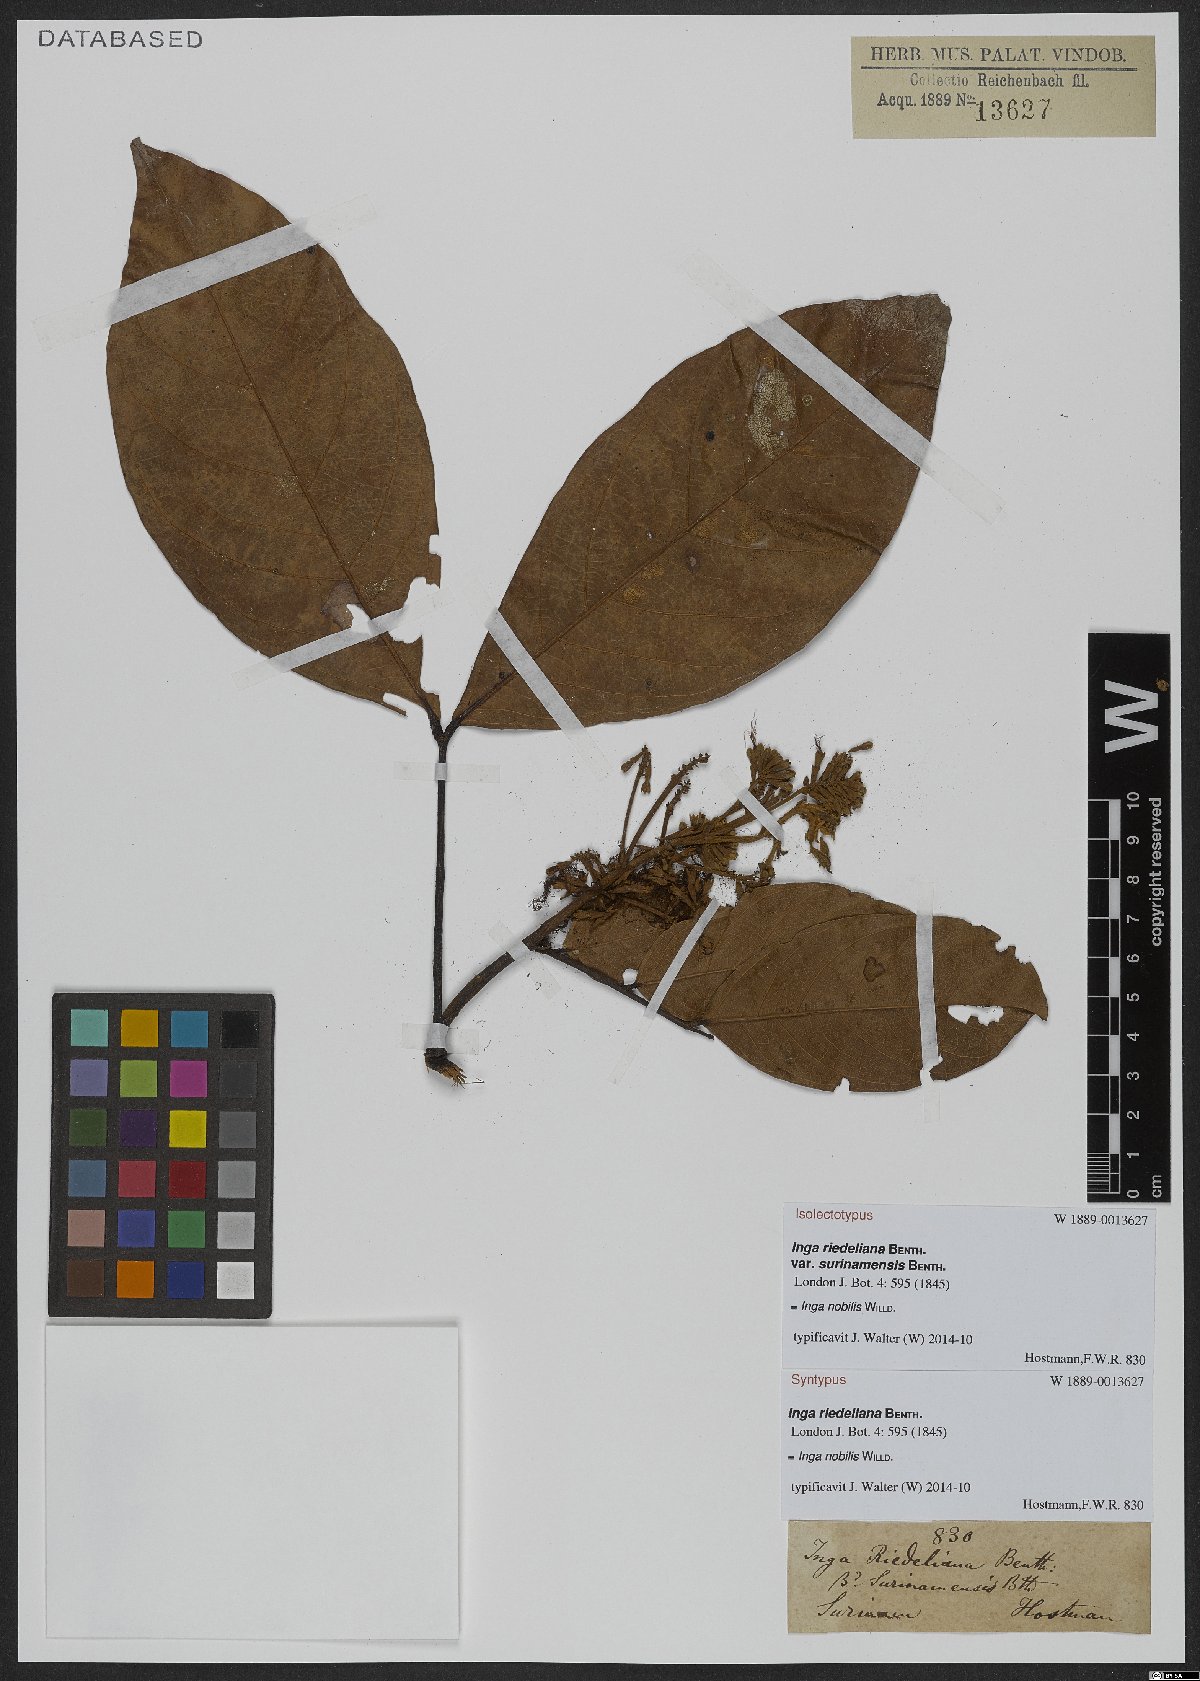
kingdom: Plantae
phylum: Tracheophyta
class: Magnoliopsida
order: Fabales
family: Fabaceae
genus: Inga
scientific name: Inga nobilis
